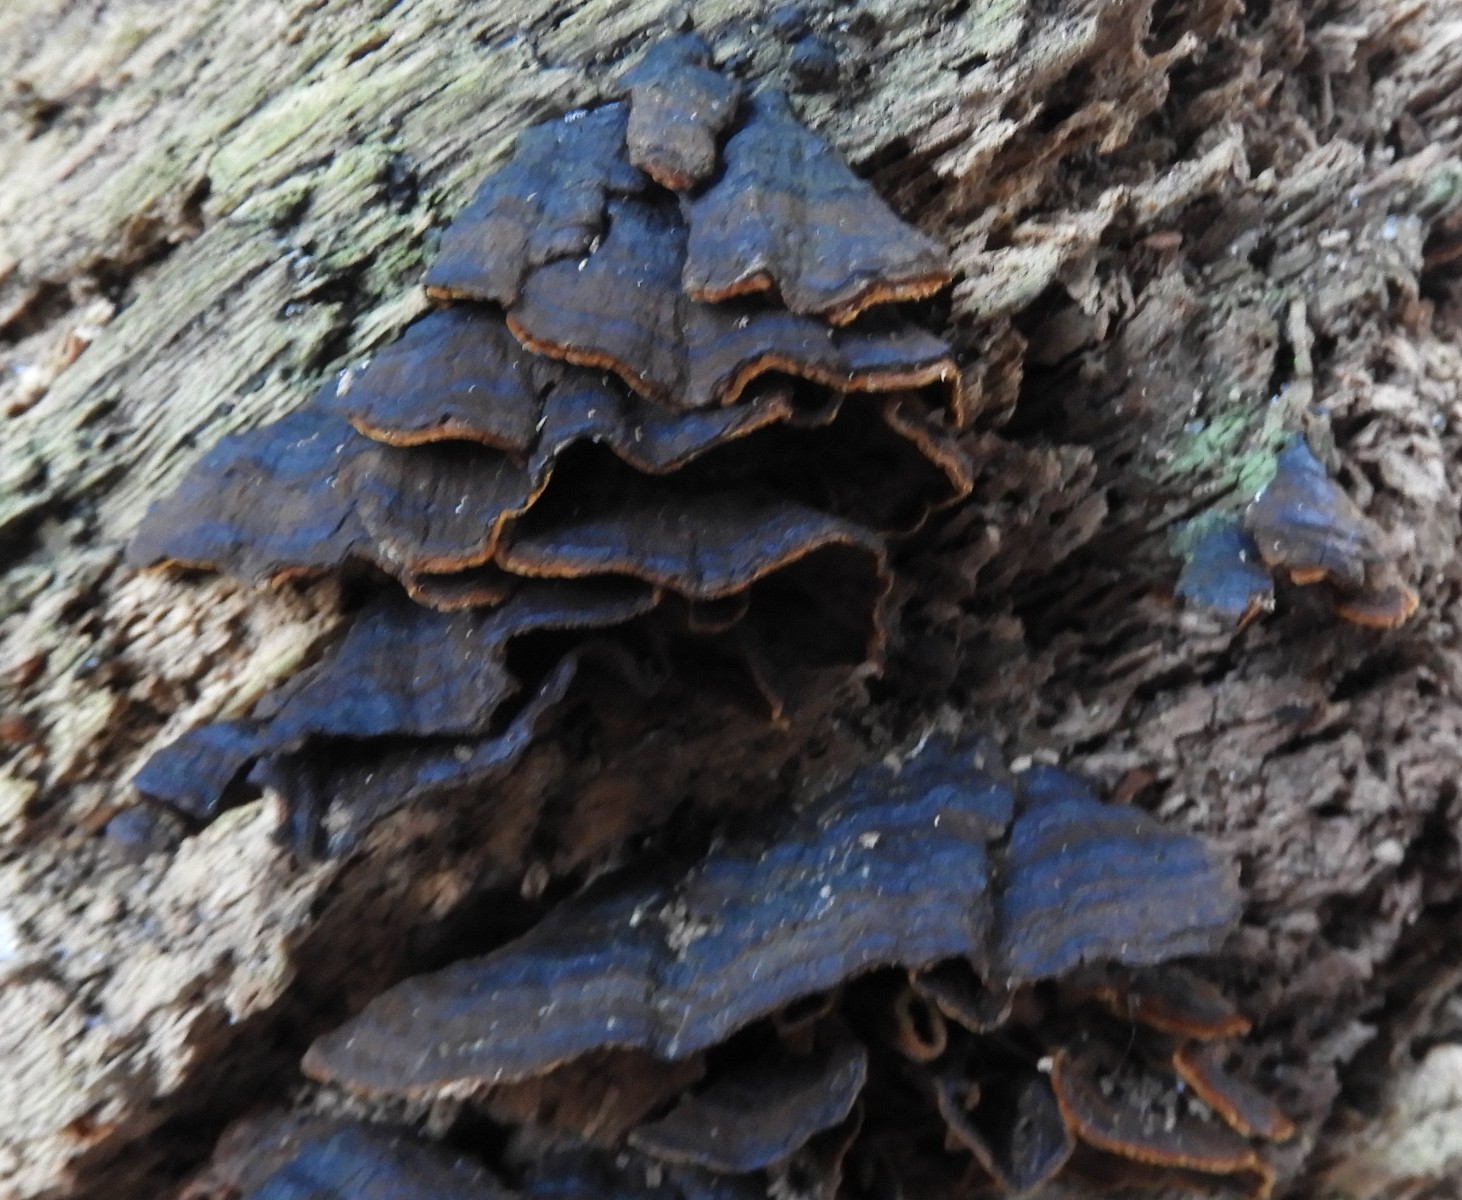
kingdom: Fungi
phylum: Basidiomycota
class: Agaricomycetes
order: Hymenochaetales
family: Hymenochaetaceae
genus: Hymenochaete
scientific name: Hymenochaete rubiginosa
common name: stiv ruslædersvamp
